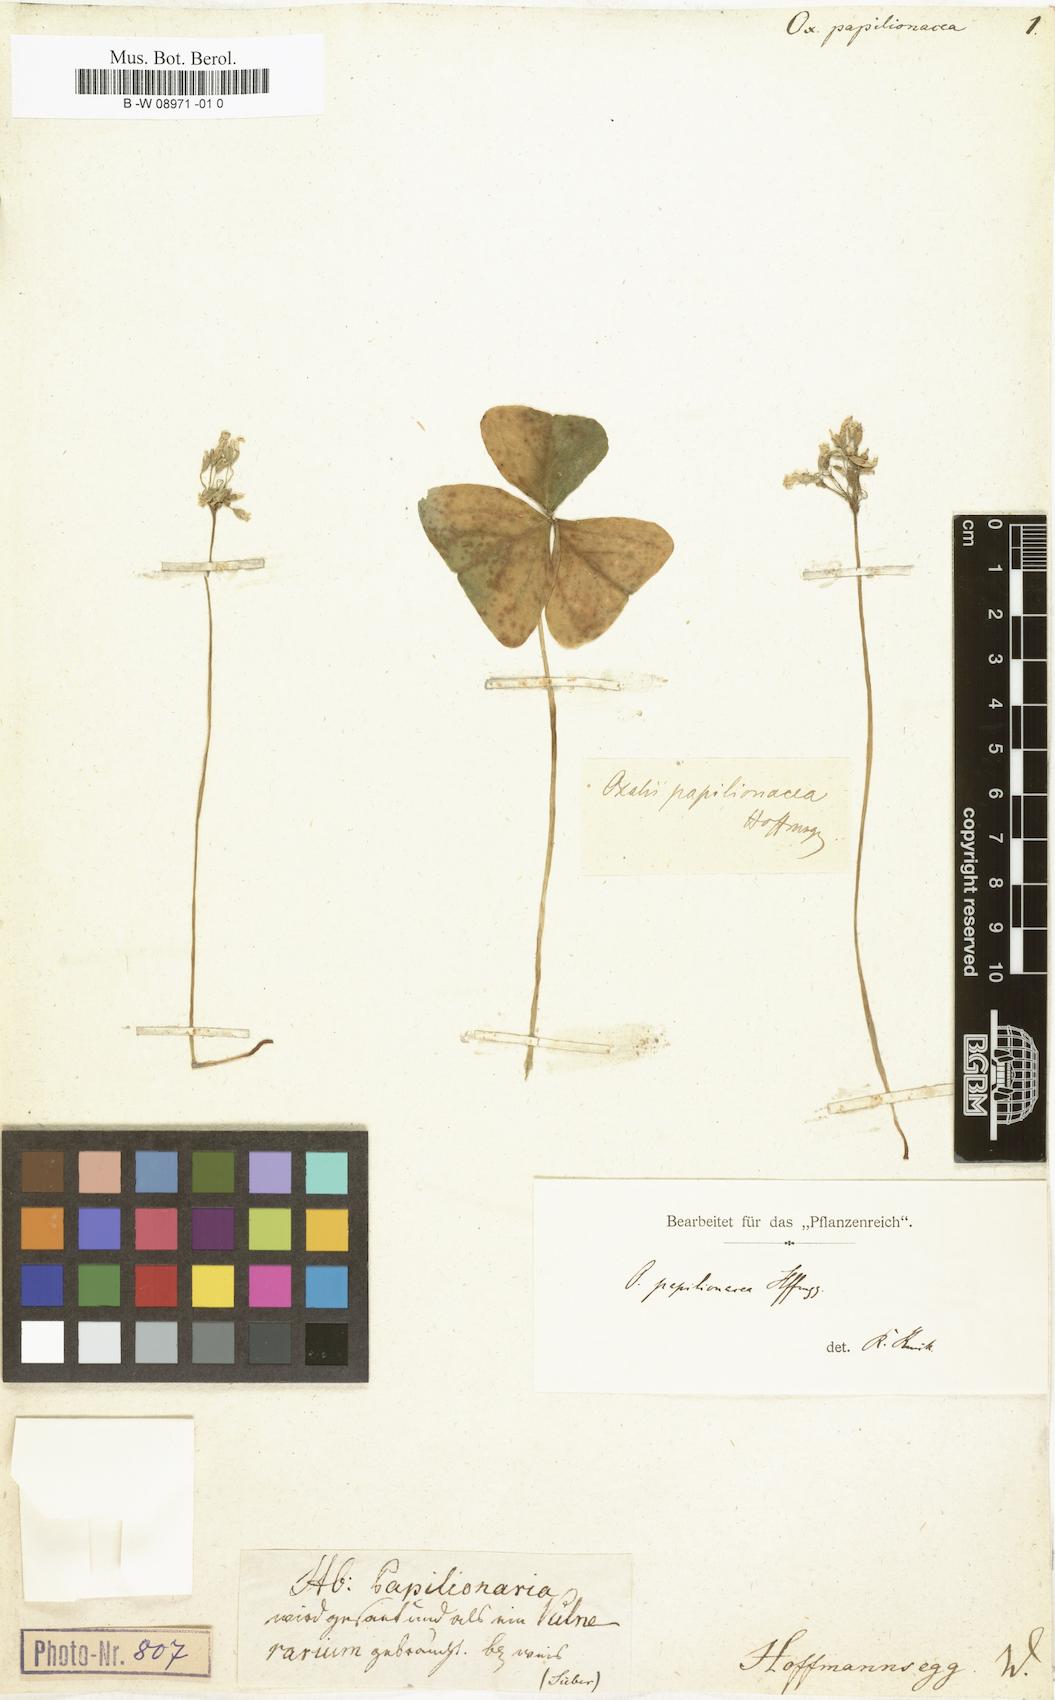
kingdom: Plantae
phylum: Tracheophyta
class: Magnoliopsida
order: Oxalidales
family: Oxalidaceae
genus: Oxalis
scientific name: Oxalis triangularis
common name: Wood sorrel
